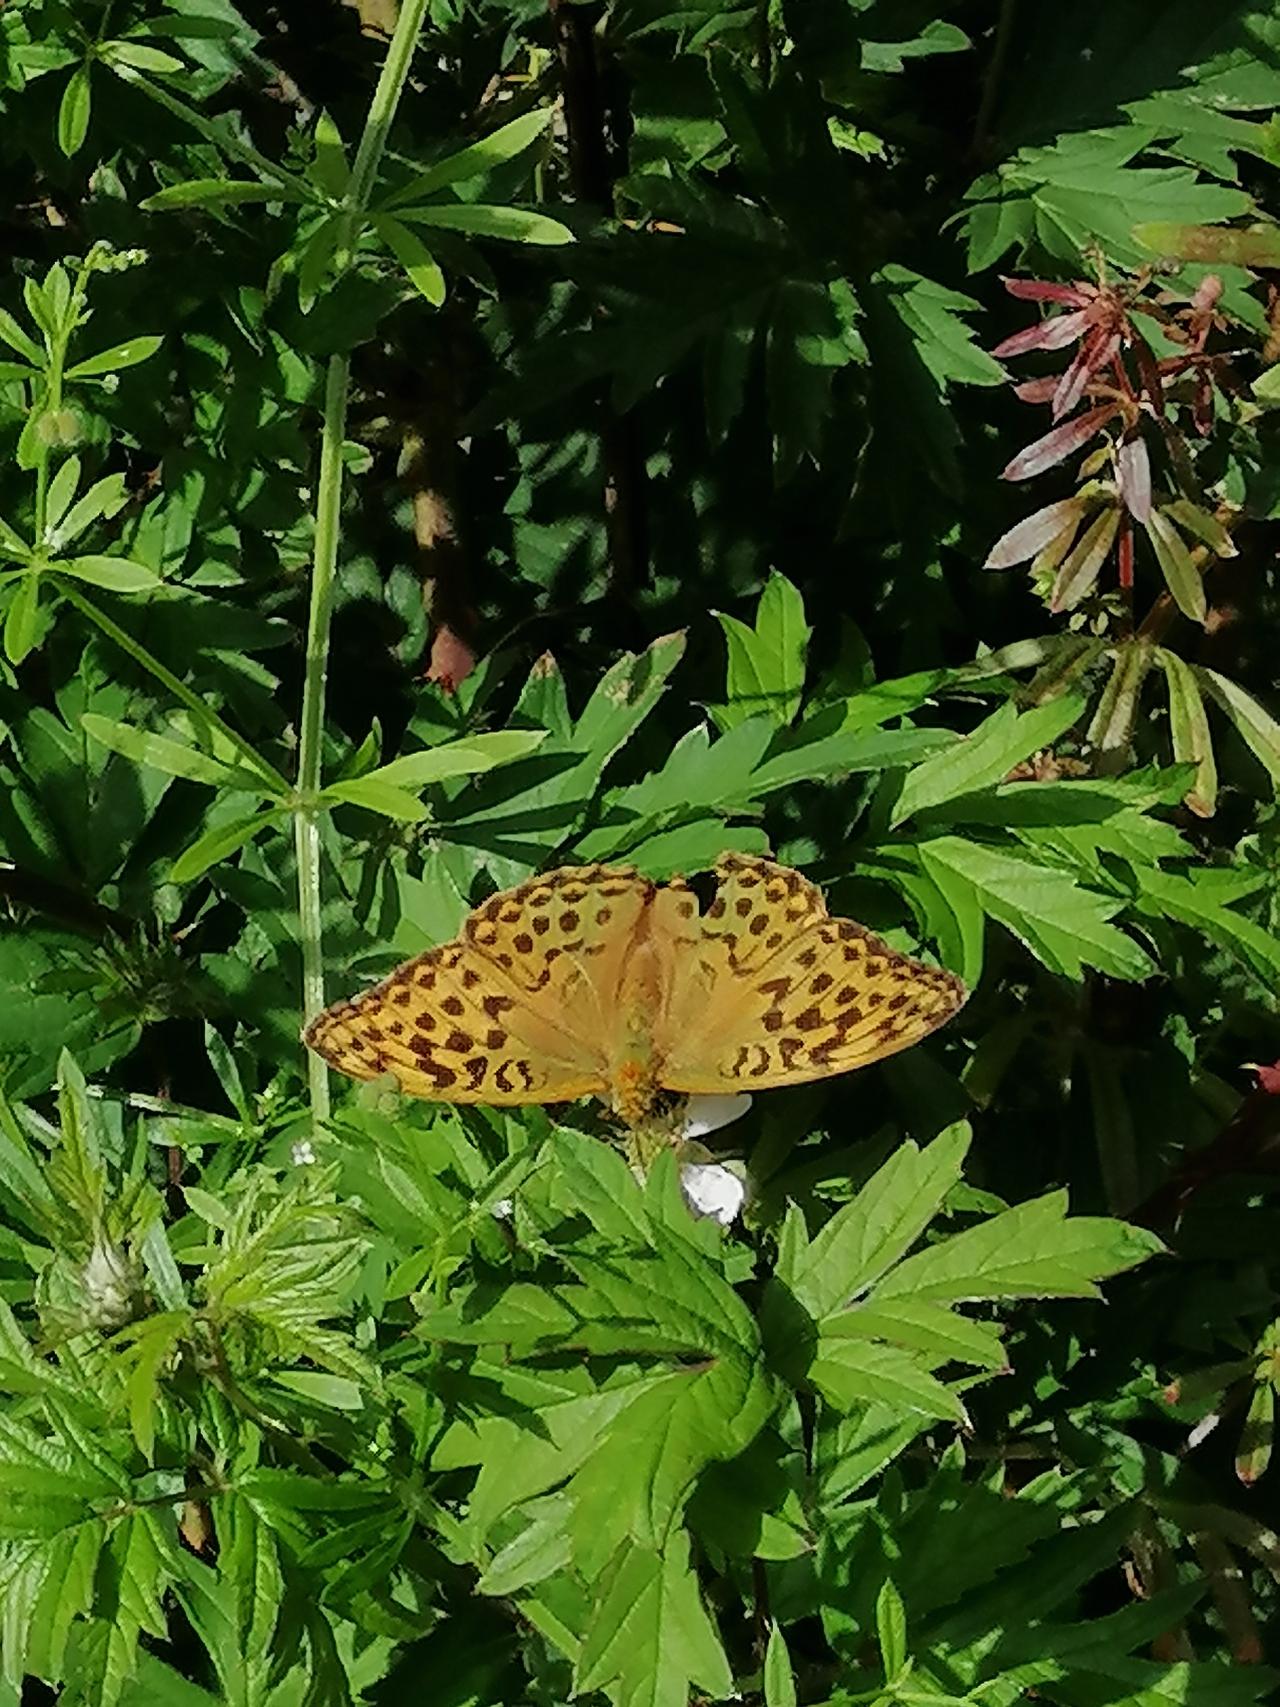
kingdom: Animalia
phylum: Arthropoda
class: Insecta
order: Lepidoptera
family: Nymphalidae
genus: Argynnis
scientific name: Argynnis paphia
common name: Kejserkåbe
